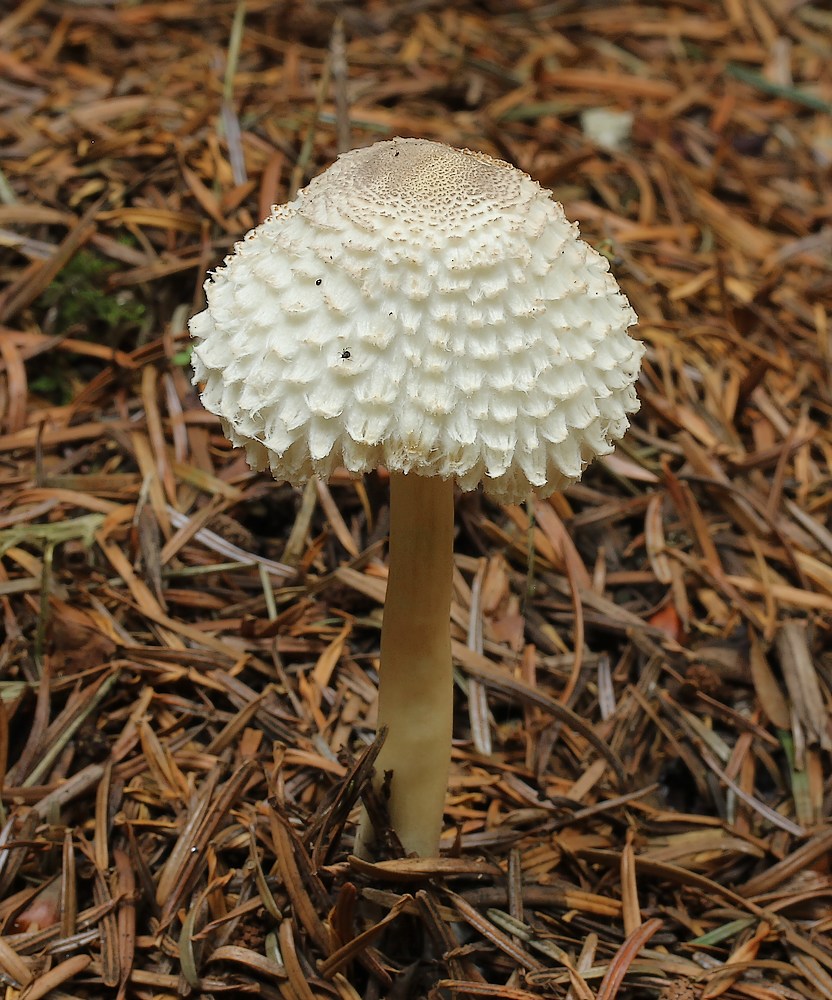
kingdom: Fungi
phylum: Basidiomycota
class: Agaricomycetes
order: Agaricales
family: Agaricaceae
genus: Leucoagaricus
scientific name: Leucoagaricus nympharum
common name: gran-silkehat
